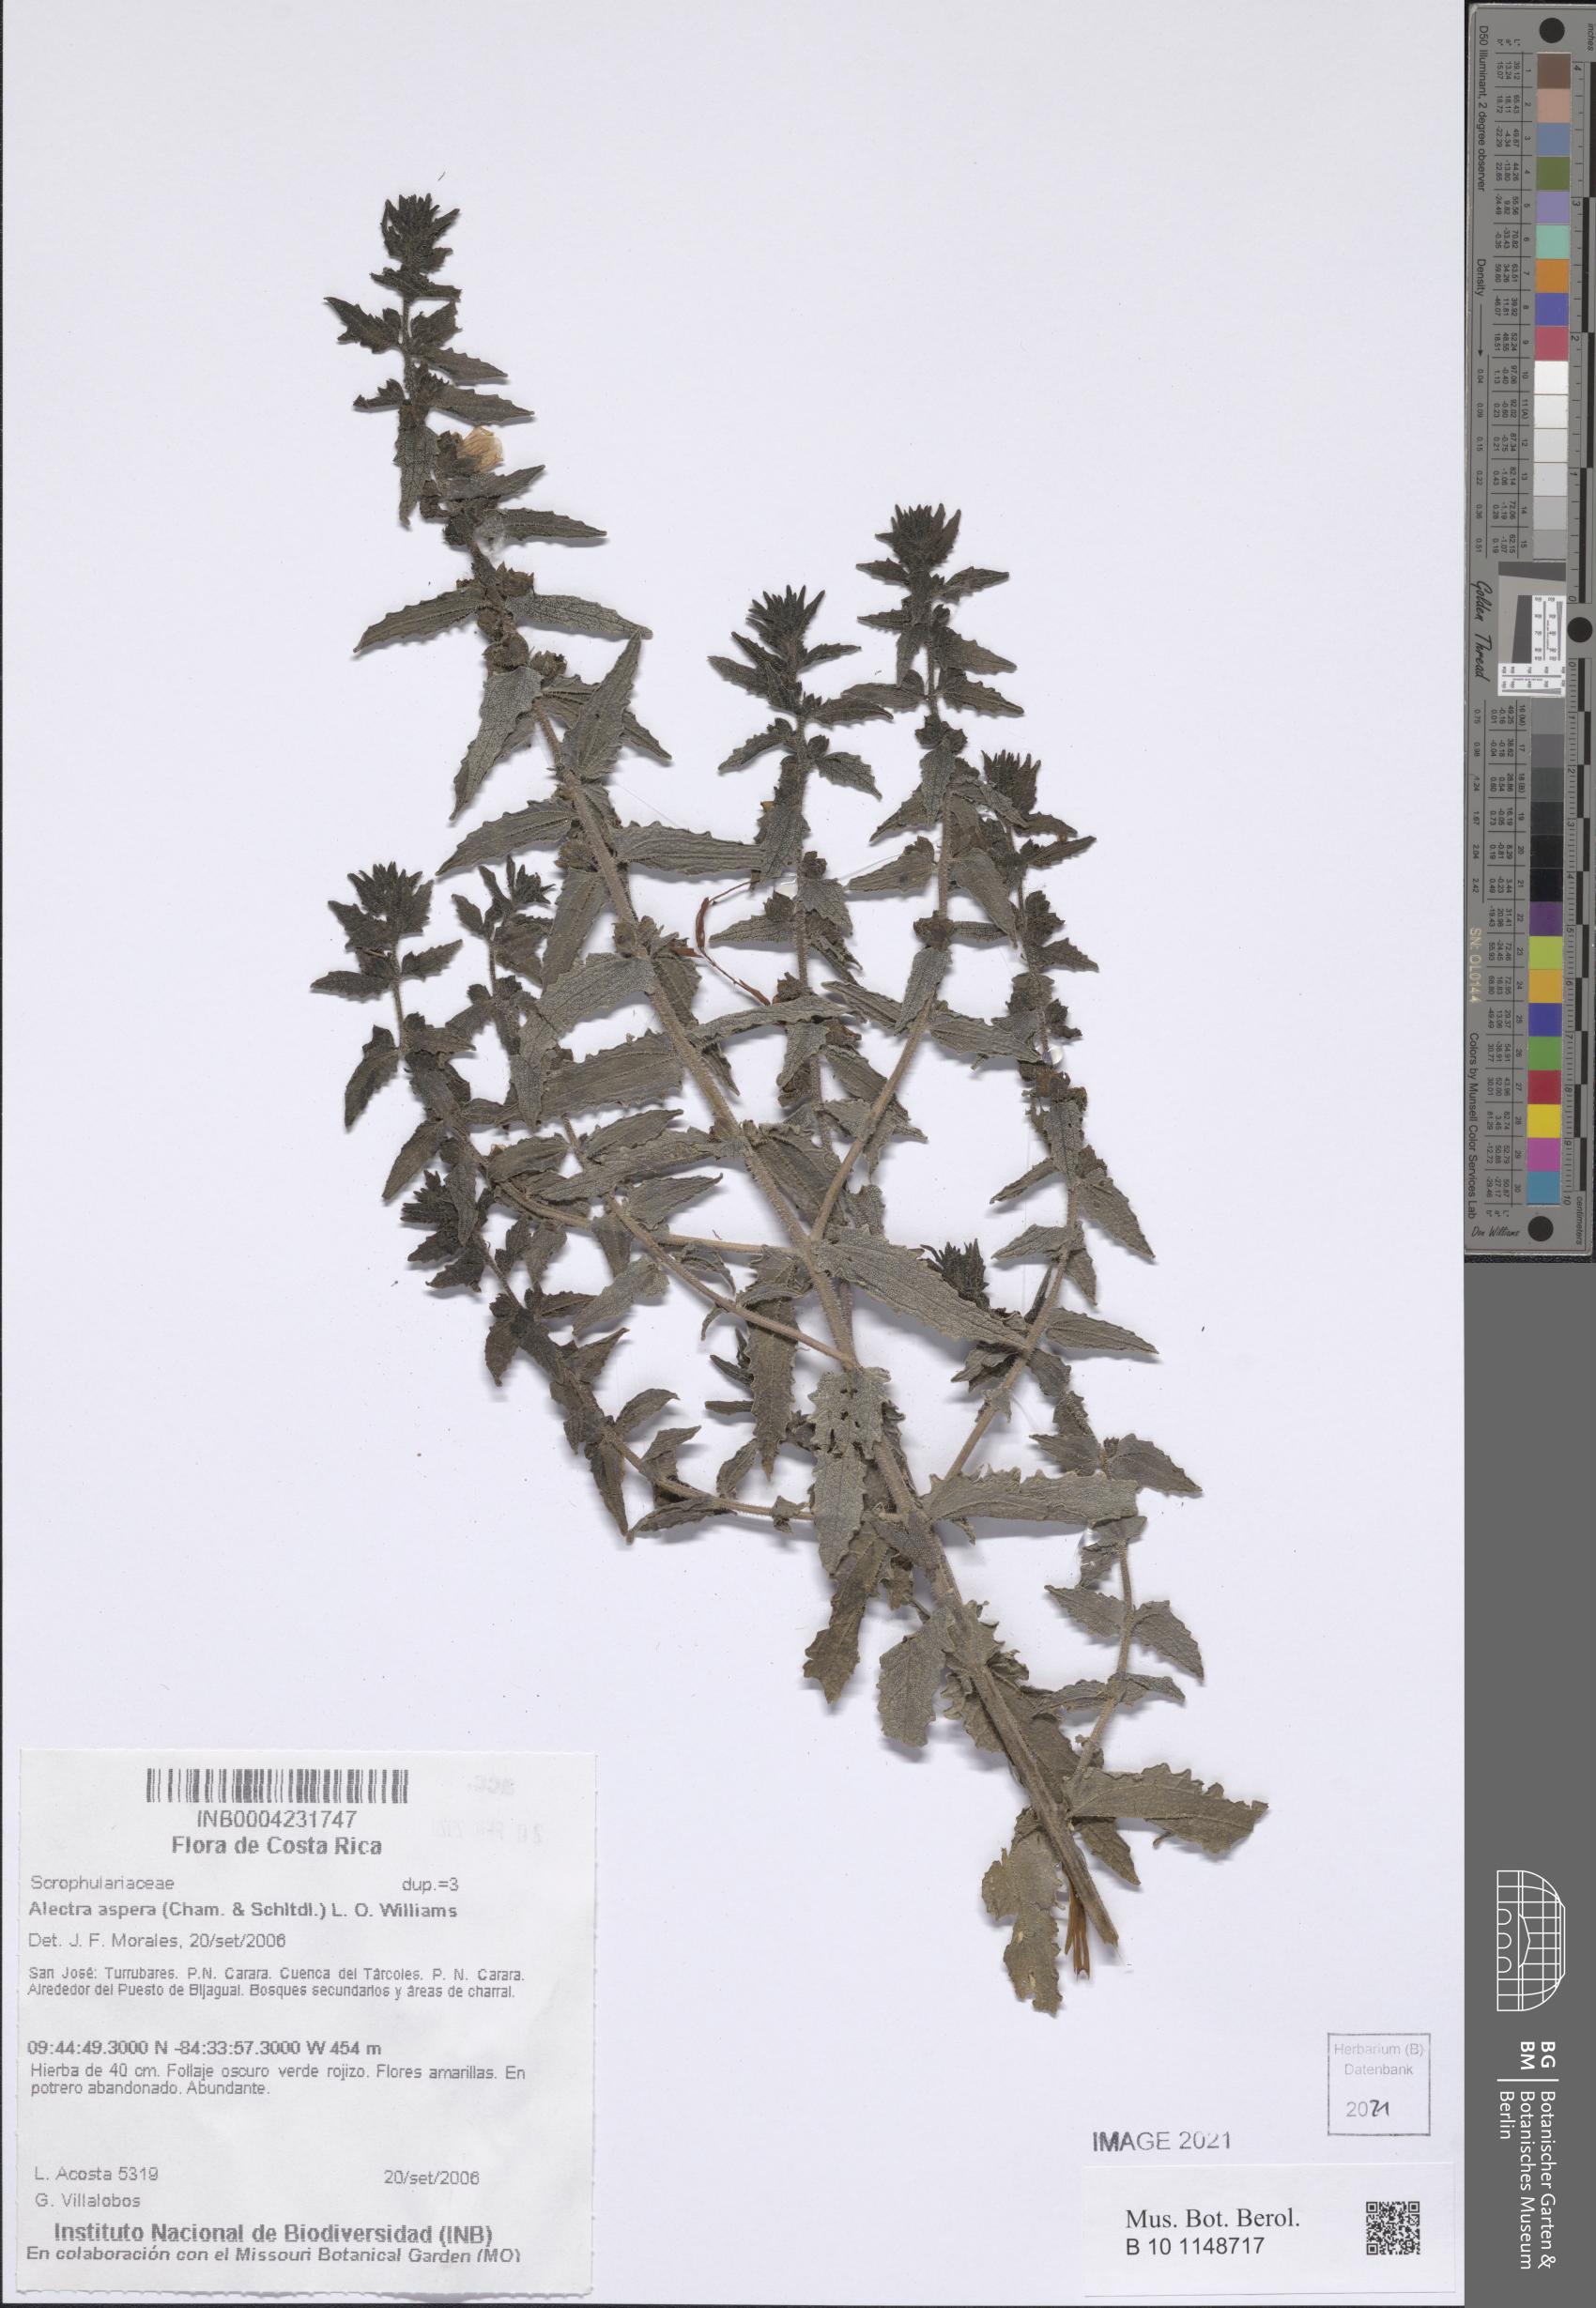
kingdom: Plantae
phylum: Tracheophyta
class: Magnoliopsida
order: Lamiales
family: Orobanchaceae
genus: Melasma
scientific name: Melasma melampyroides
